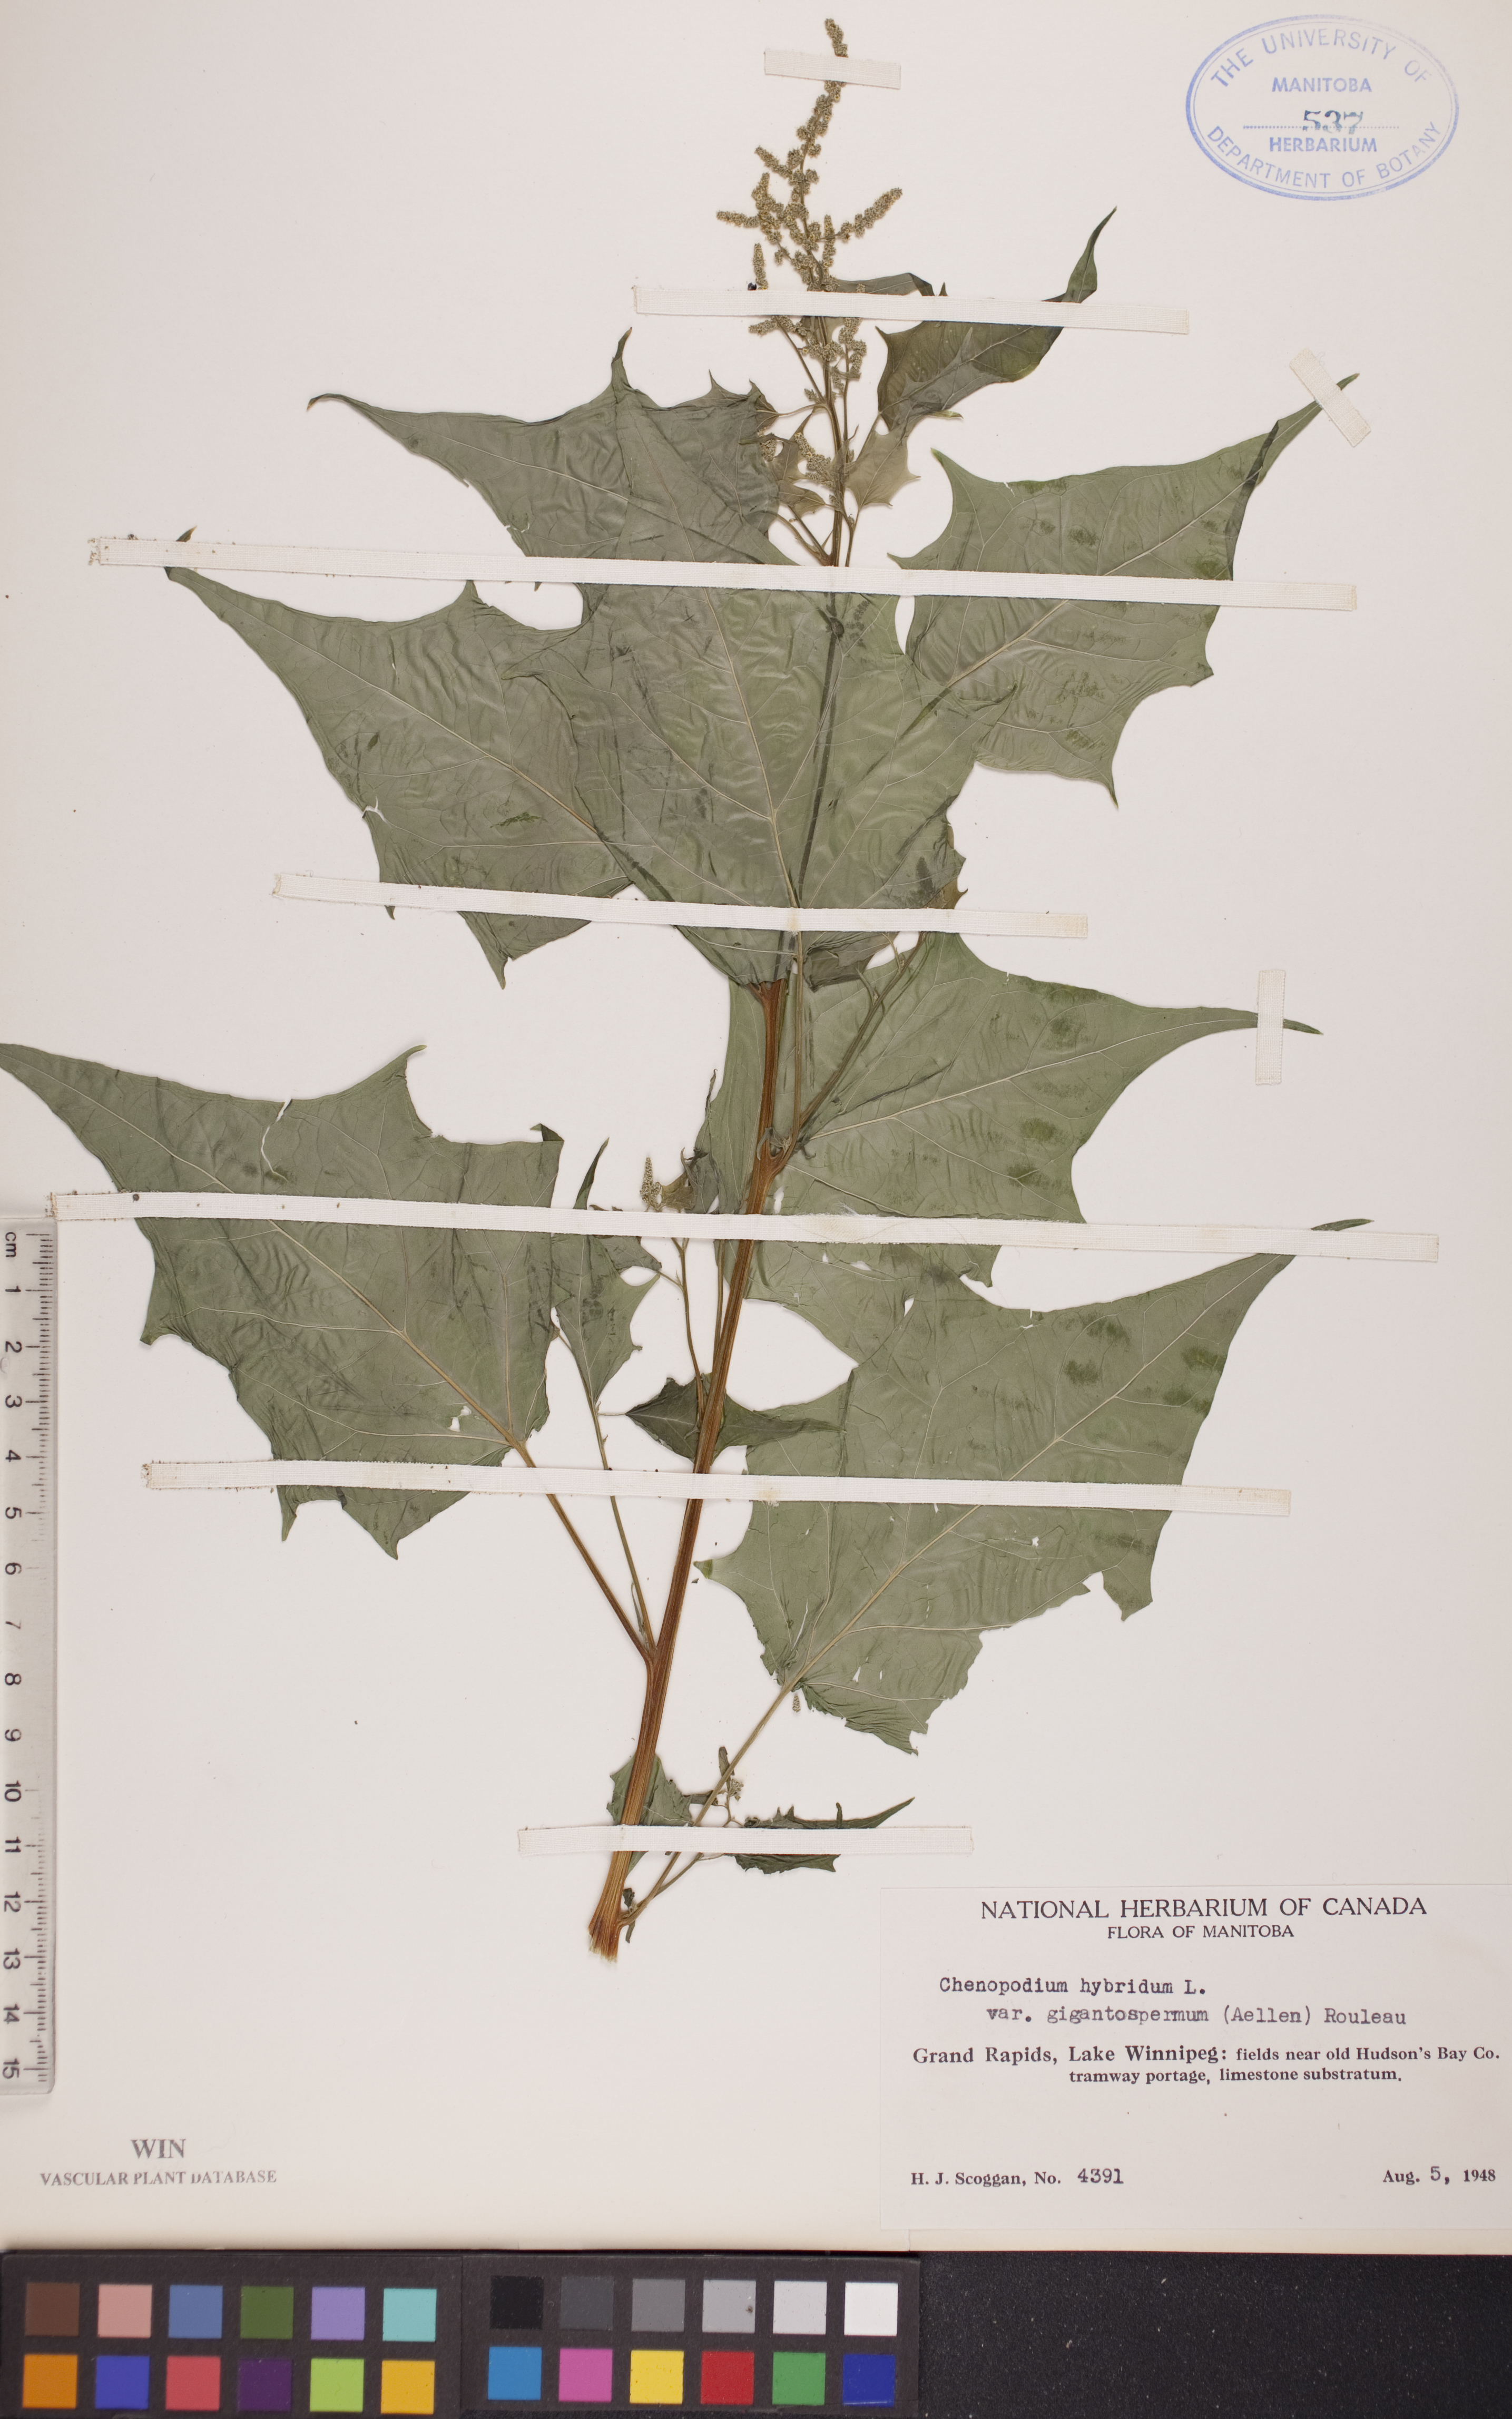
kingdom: Plantae
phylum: Tracheophyta
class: Magnoliopsida
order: Caryophyllales
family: Amaranthaceae
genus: Chenopodiastrum
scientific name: Chenopodiastrum simplex
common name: Large-seed goosefoot
